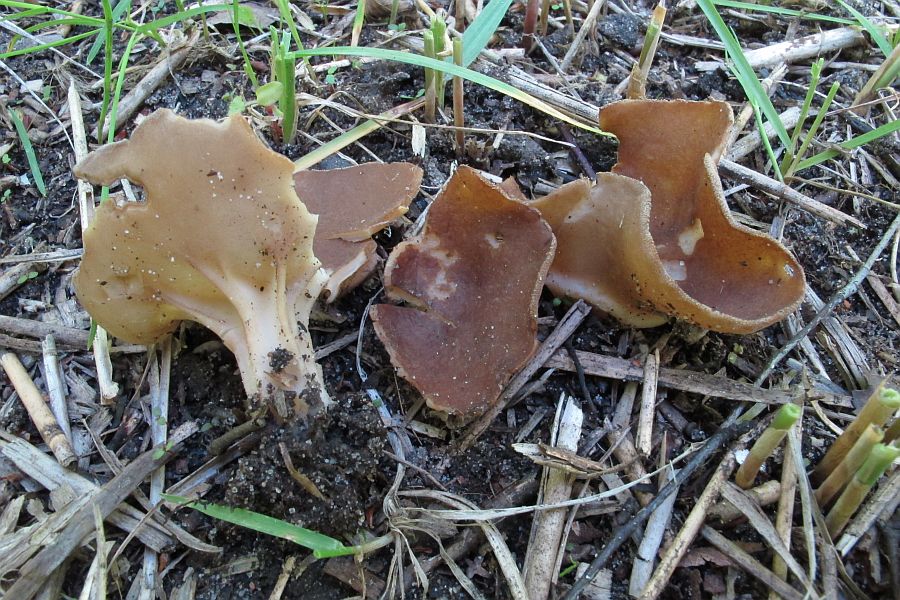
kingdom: Fungi
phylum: Ascomycota
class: Pezizomycetes
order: Pezizales
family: Helvellaceae
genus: Helvella
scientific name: Helvella acetabulum
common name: pokal-foldhat
